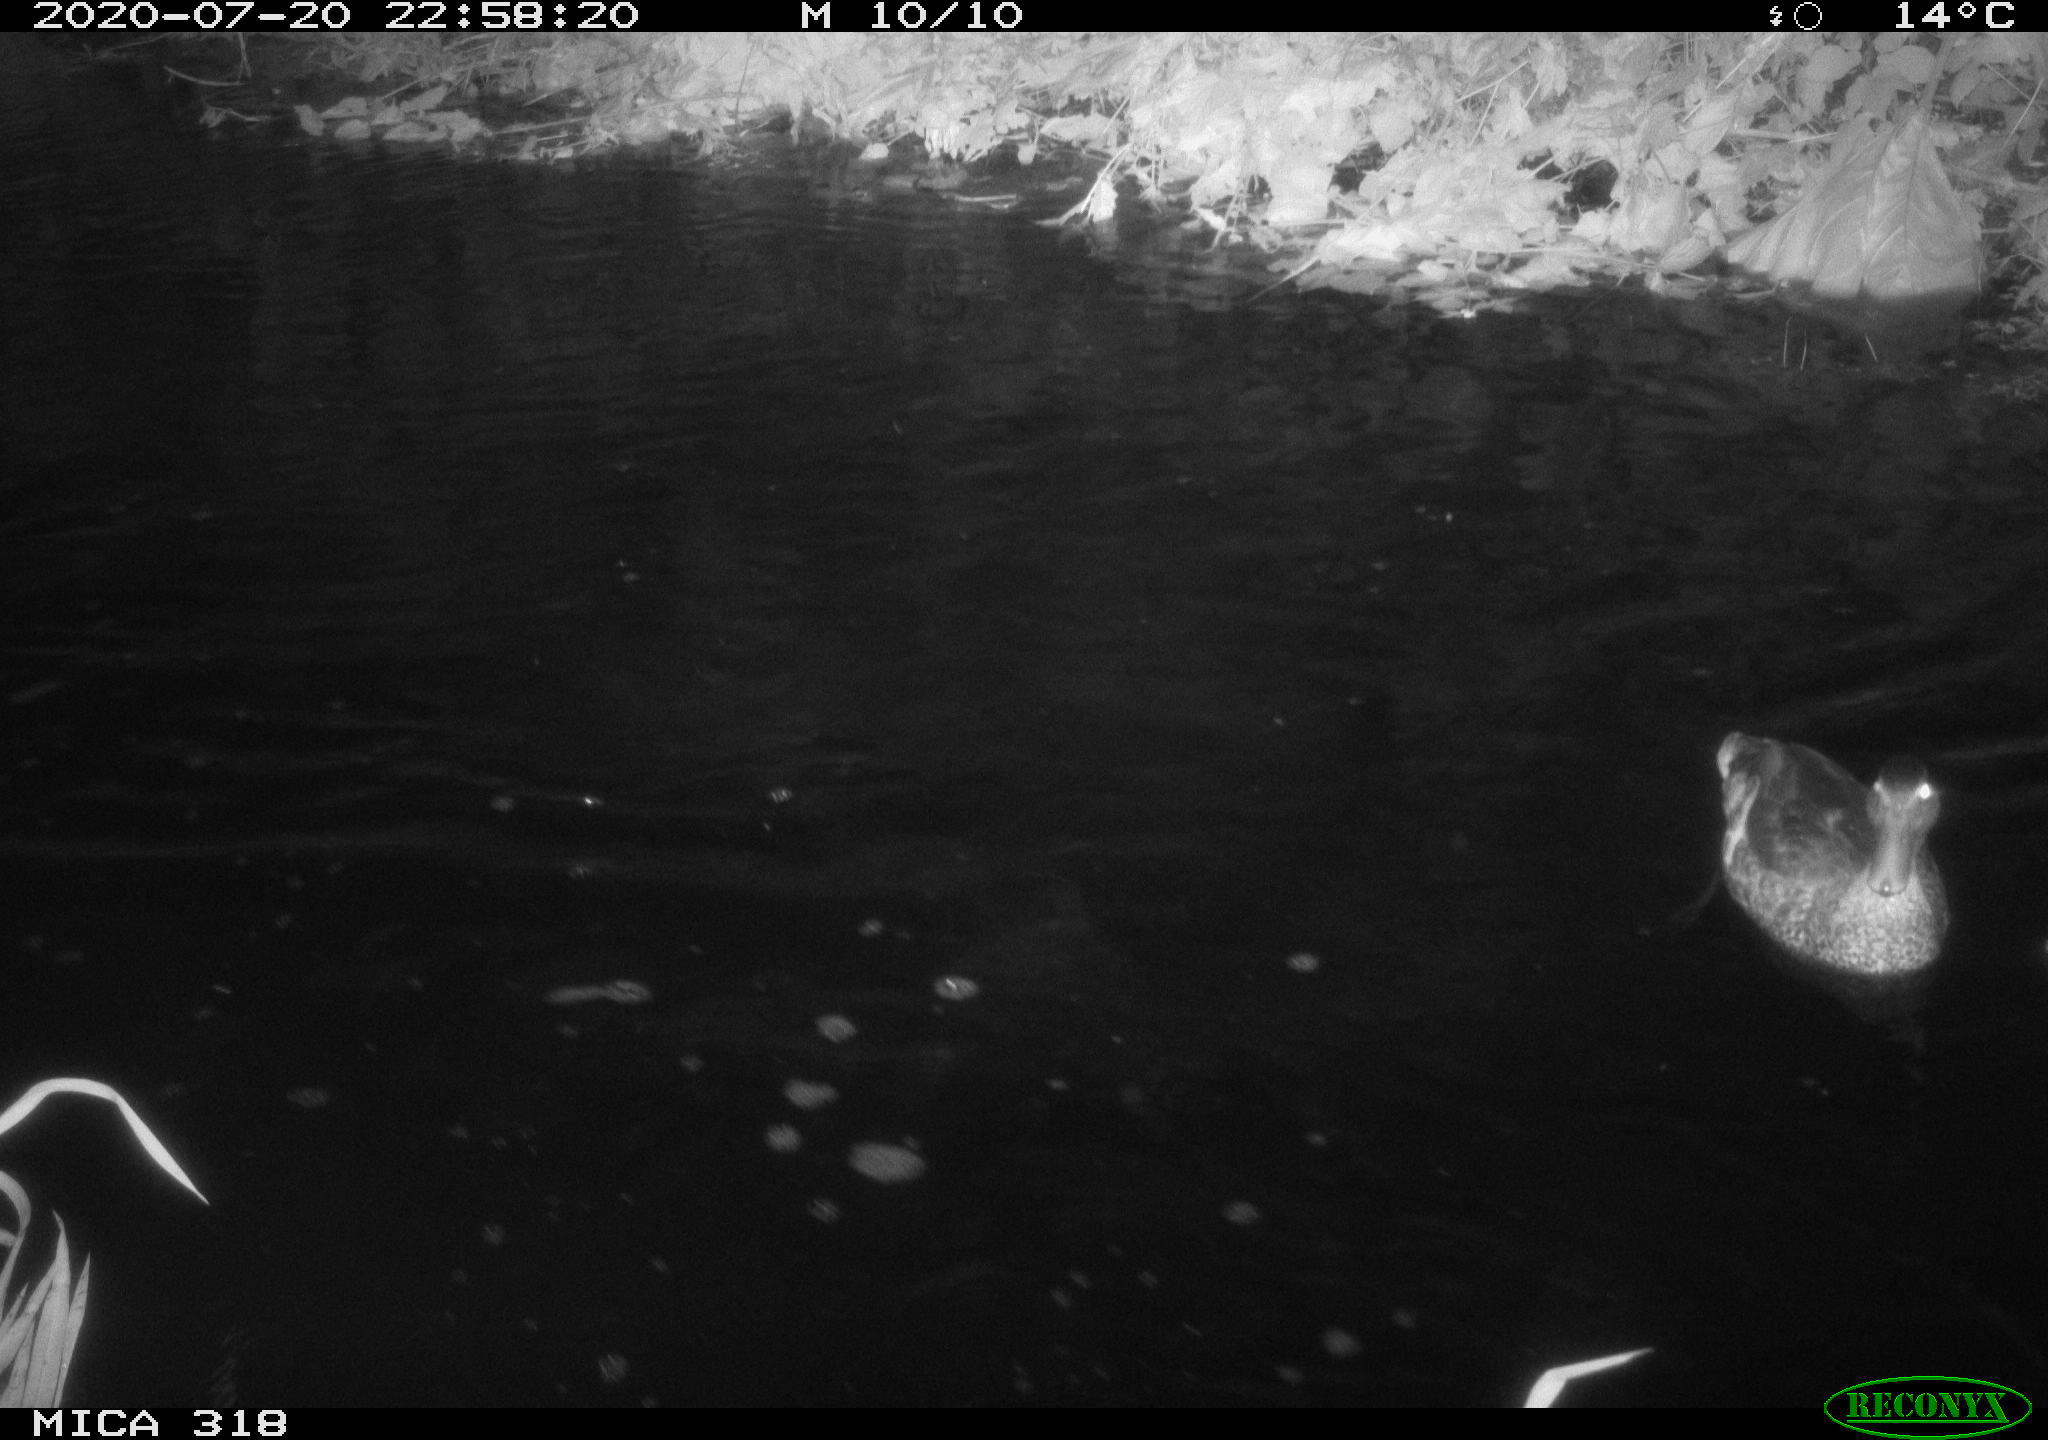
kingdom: Animalia
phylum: Chordata
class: Aves
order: Anseriformes
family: Anatidae
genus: Anas
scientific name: Anas platyrhynchos
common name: Mallard
